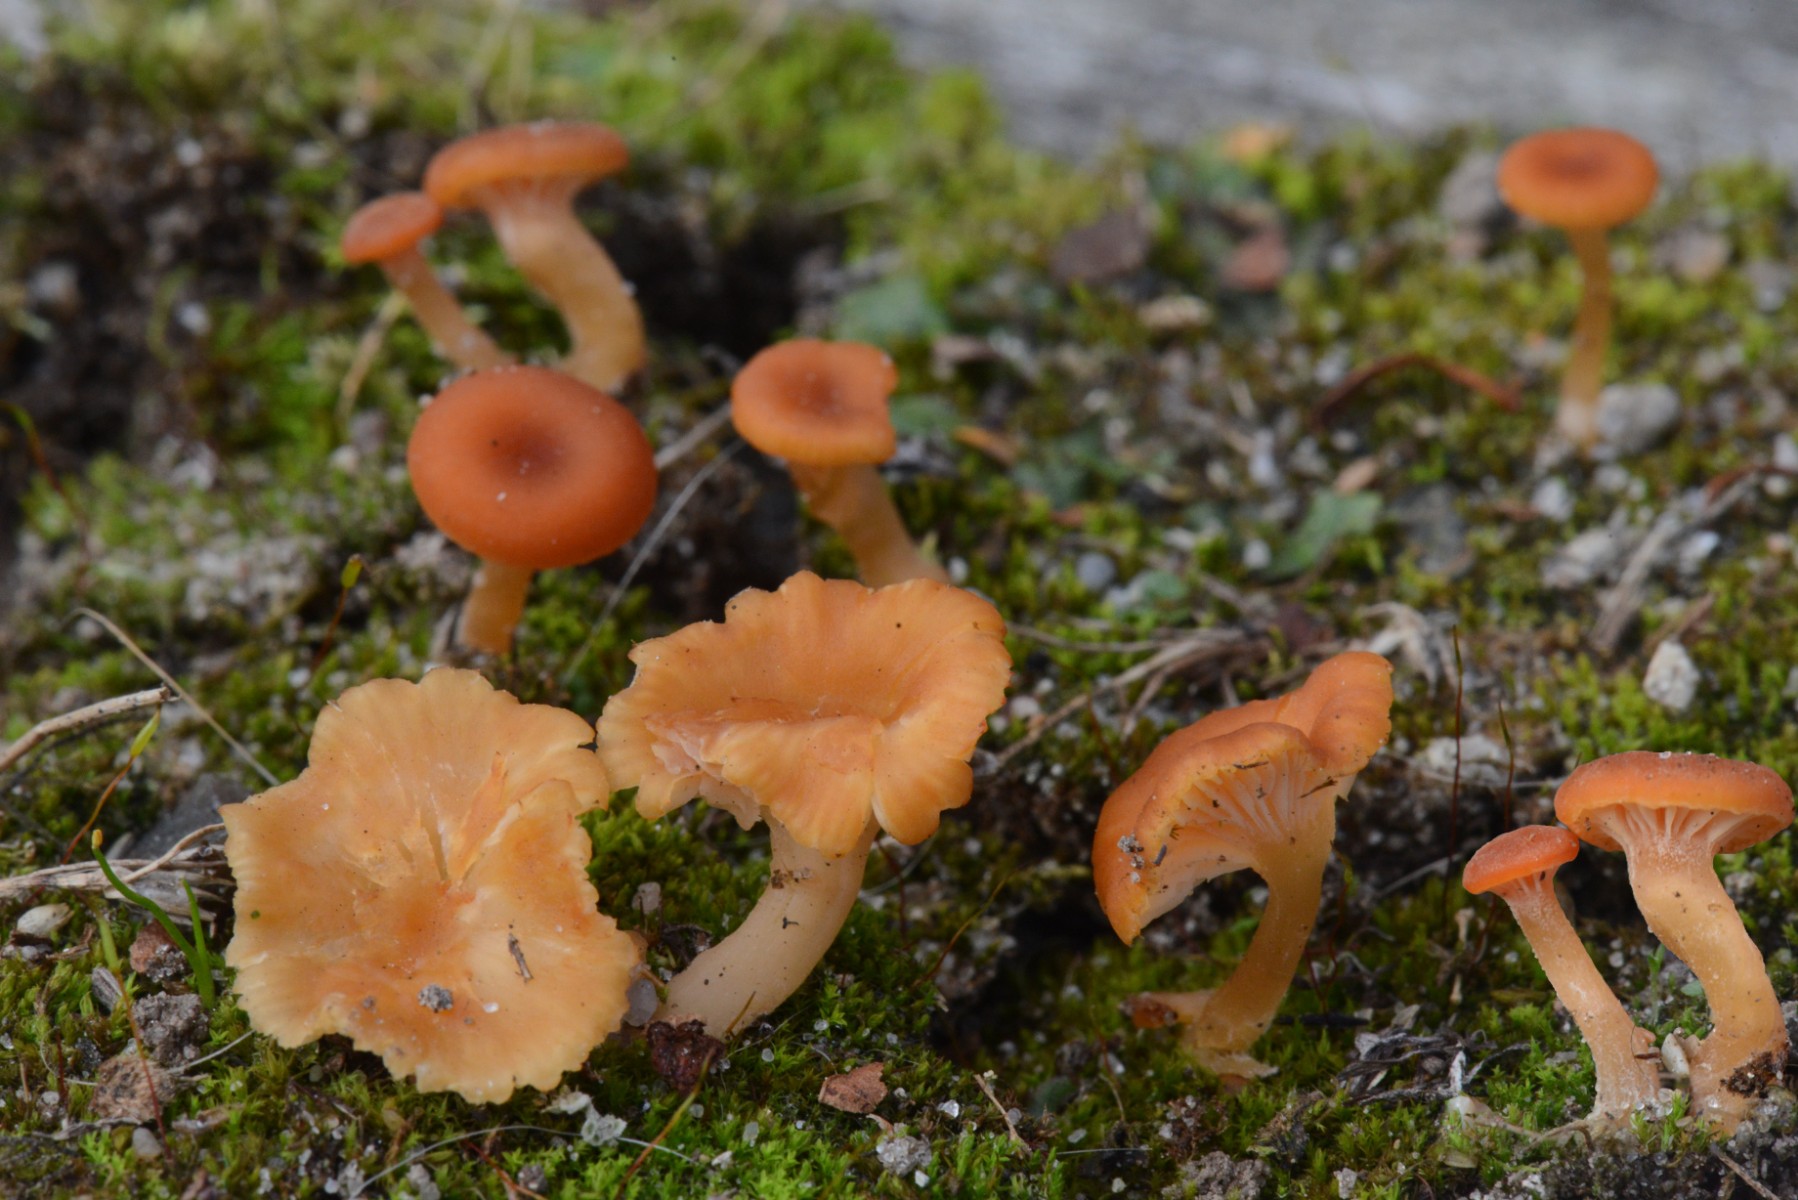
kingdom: Fungi
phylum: Basidiomycota
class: Agaricomycetes
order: Hymenochaetales
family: Rickenellaceae
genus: Loreleia
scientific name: Loreleia marchantiae
